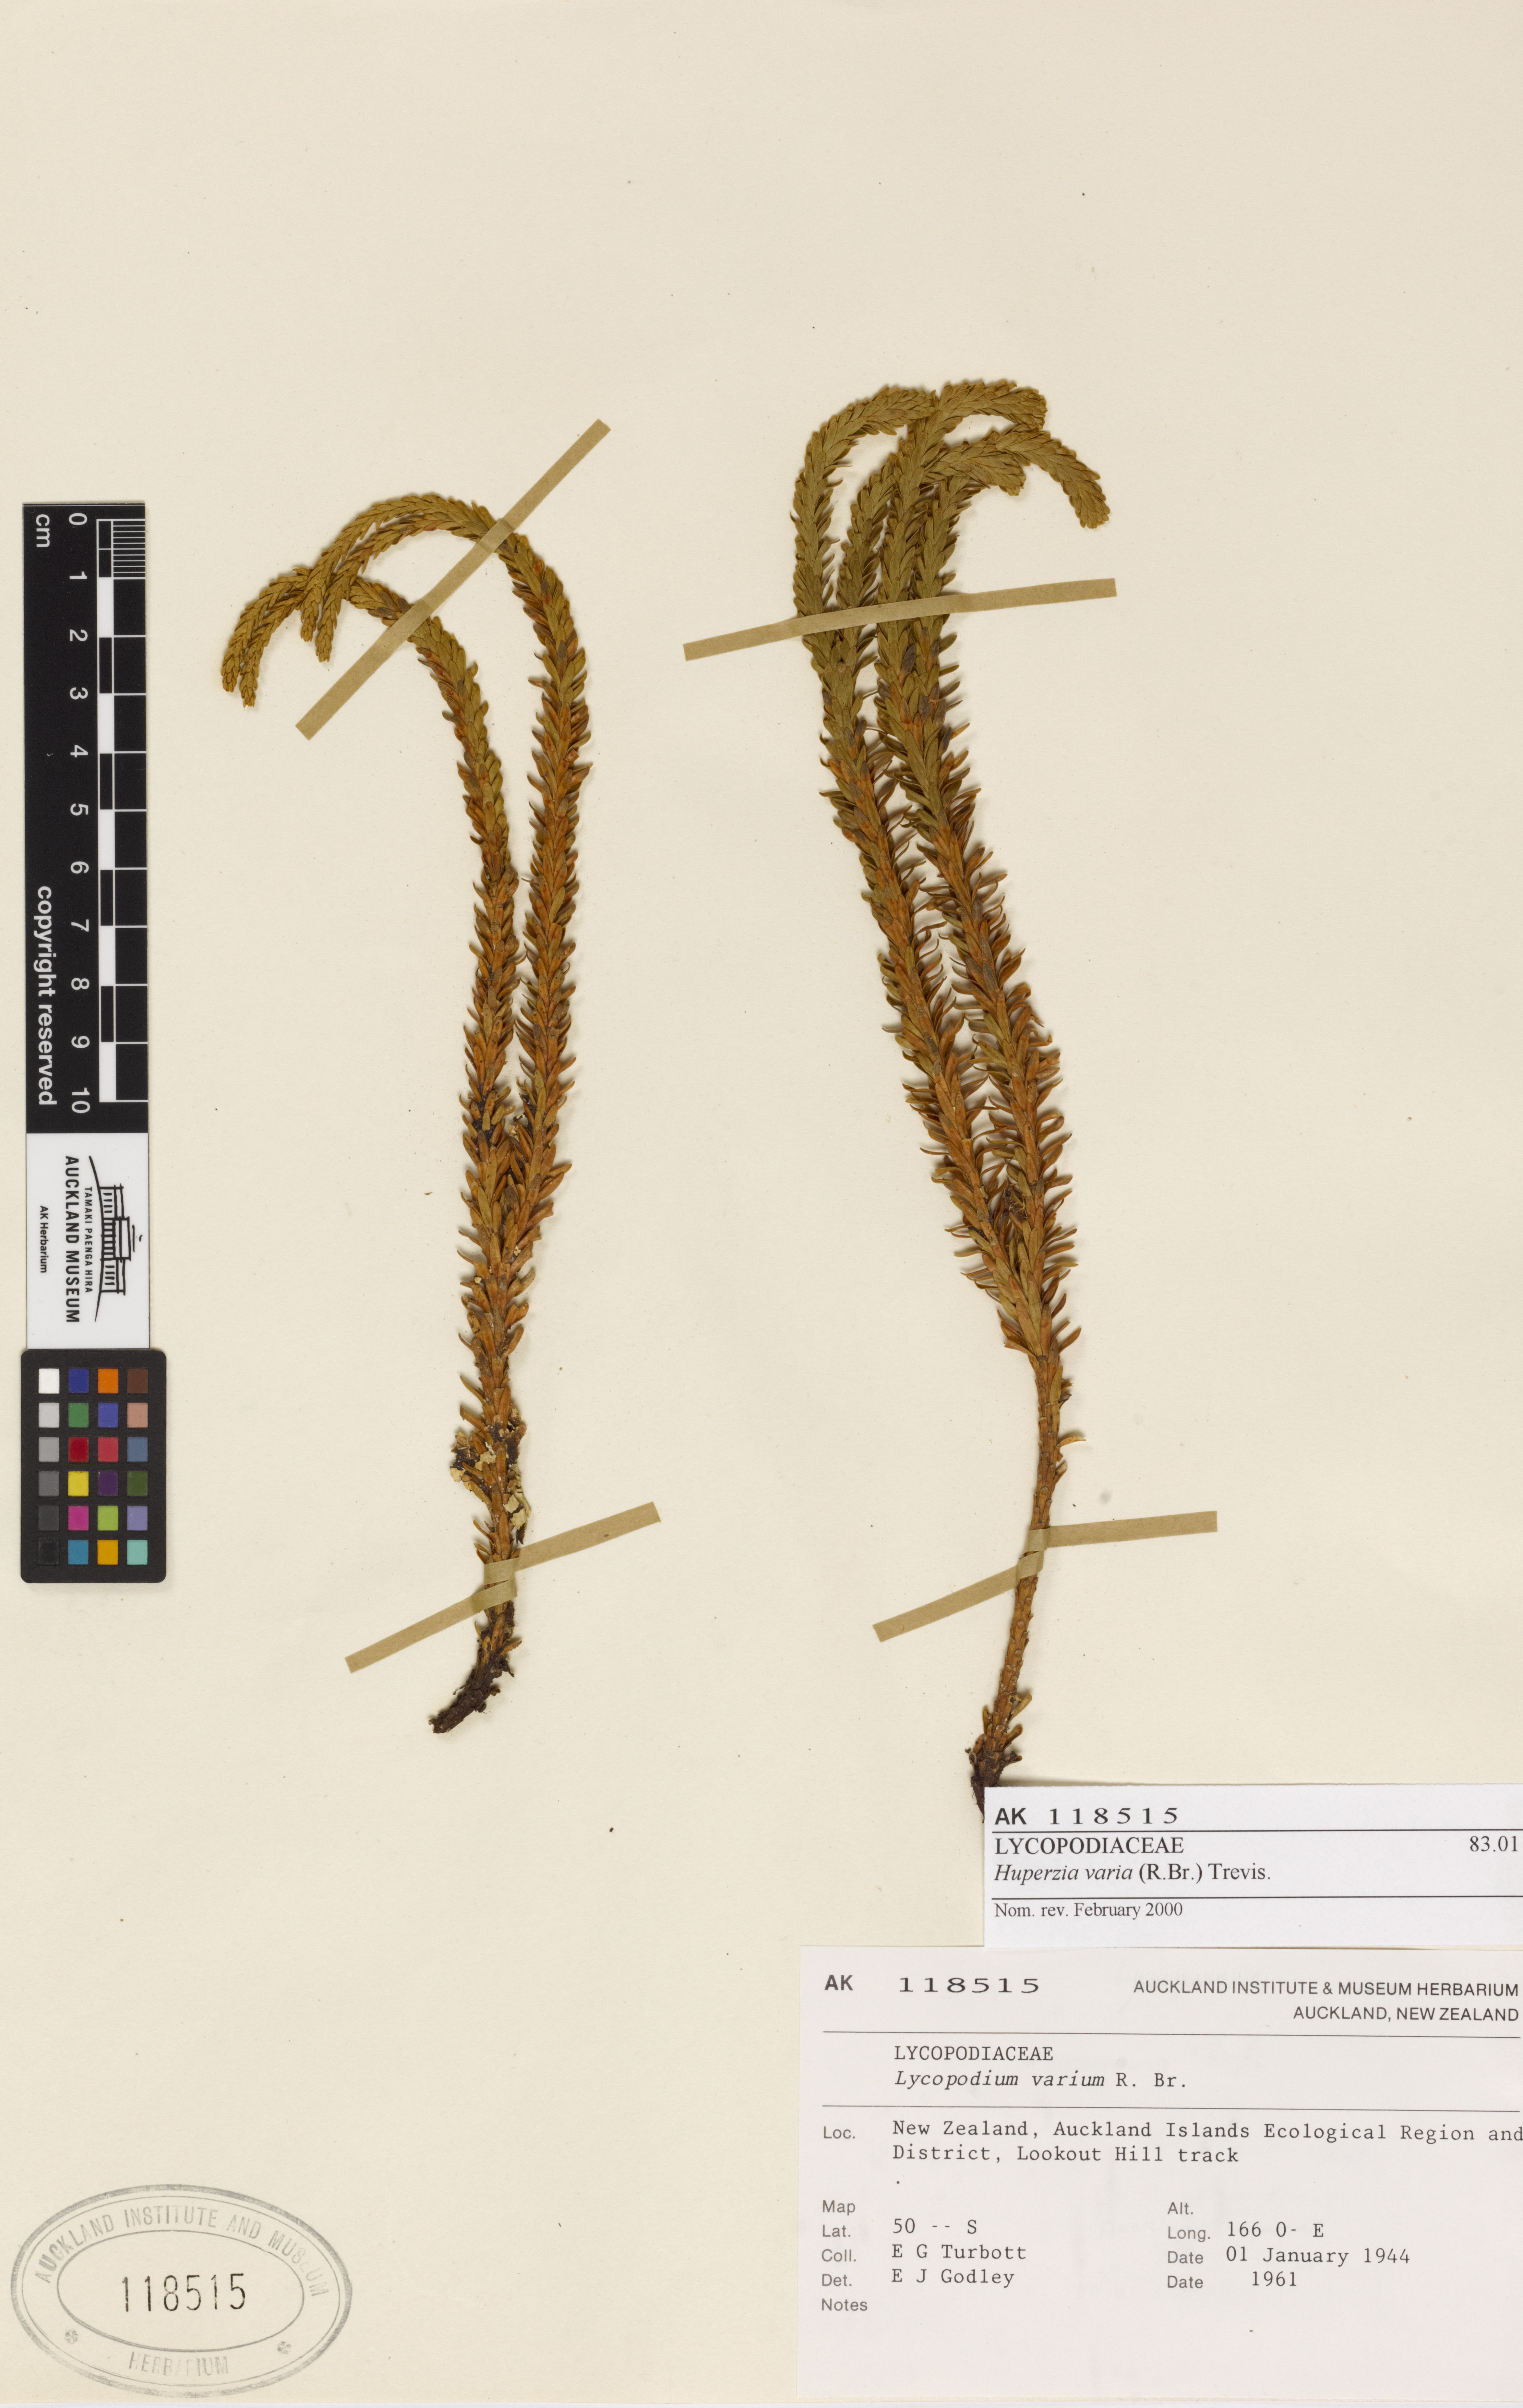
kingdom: Plantae
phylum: Tracheophyta
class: Lycopodiopsida
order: Lycopodiales
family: Lycopodiaceae
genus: Phlegmariurus
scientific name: Phlegmariurus varius
